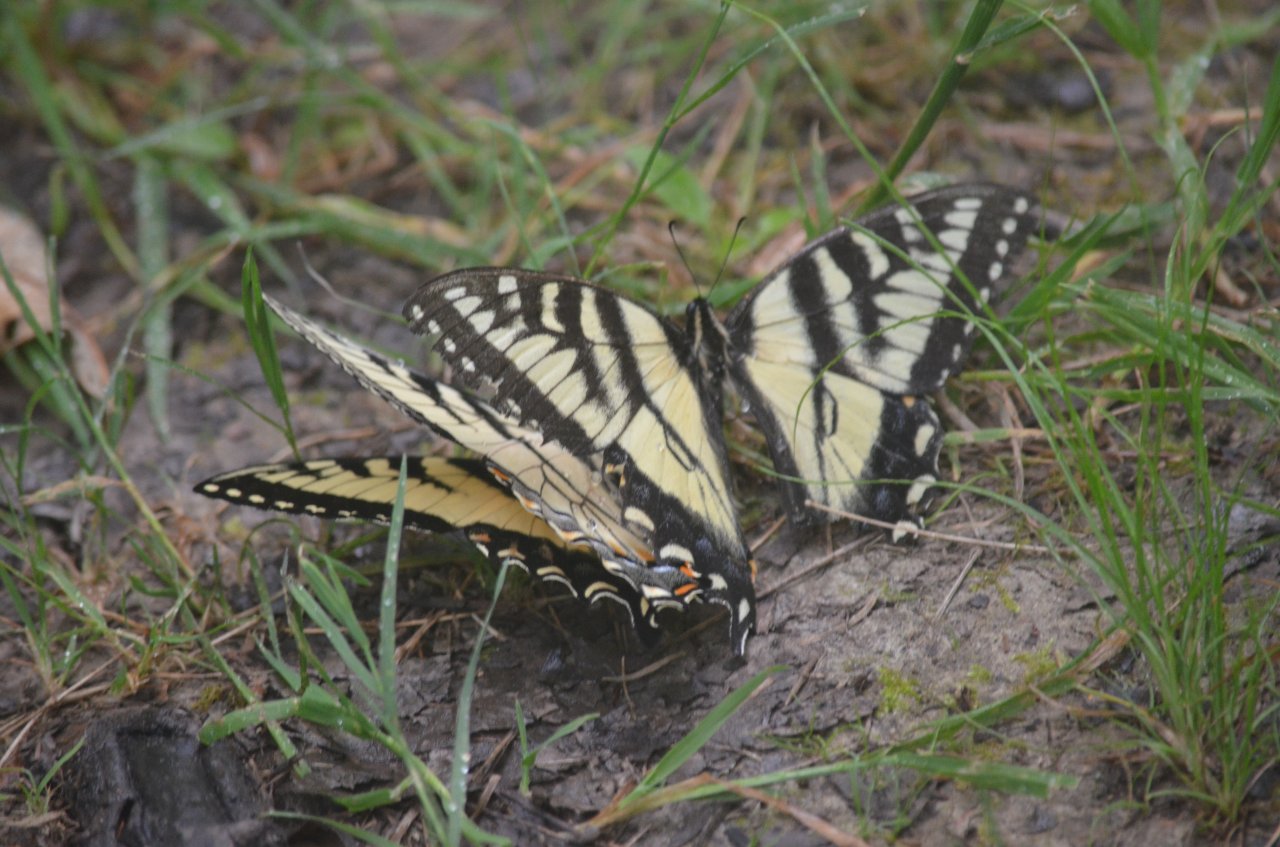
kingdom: Animalia
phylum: Arthropoda
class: Insecta
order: Lepidoptera
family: Papilionidae
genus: Pterourus
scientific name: Pterourus canadensis
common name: Canadian Tiger Swallowtail
